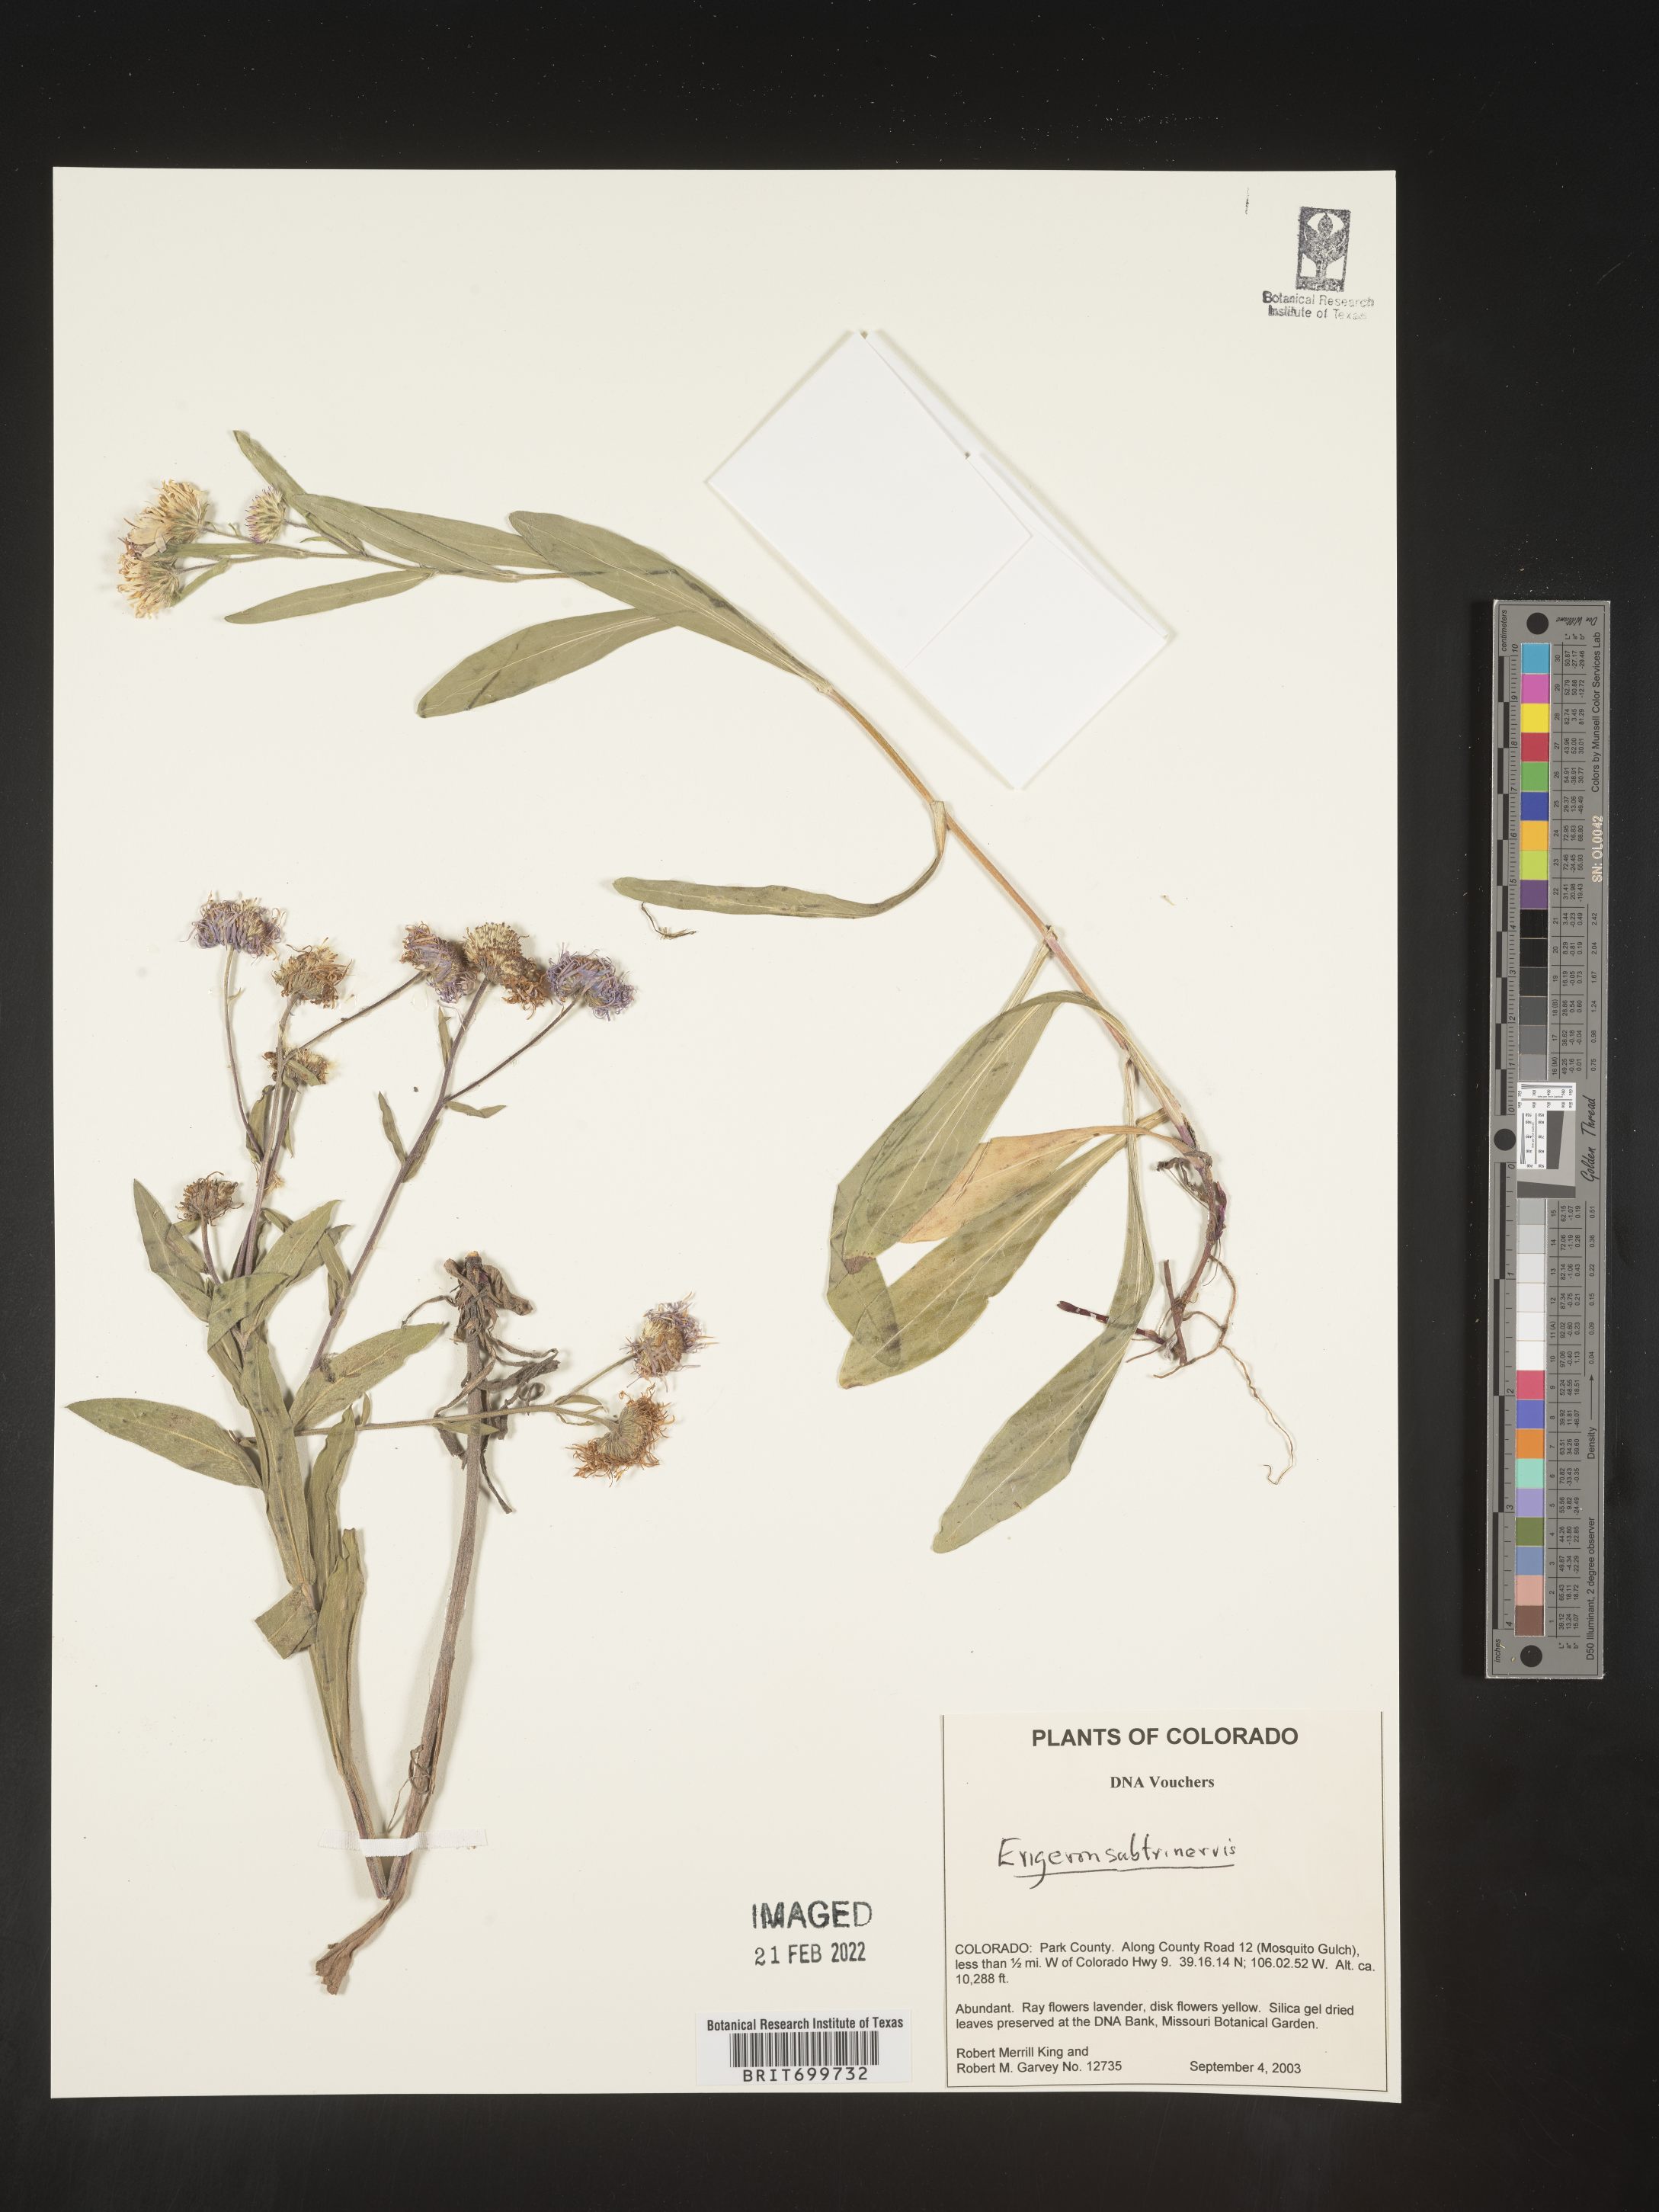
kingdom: Plantae
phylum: Tracheophyta
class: Magnoliopsida
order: Asterales
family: Asteraceae
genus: Erigeron
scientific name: Erigeron subtrinervis
